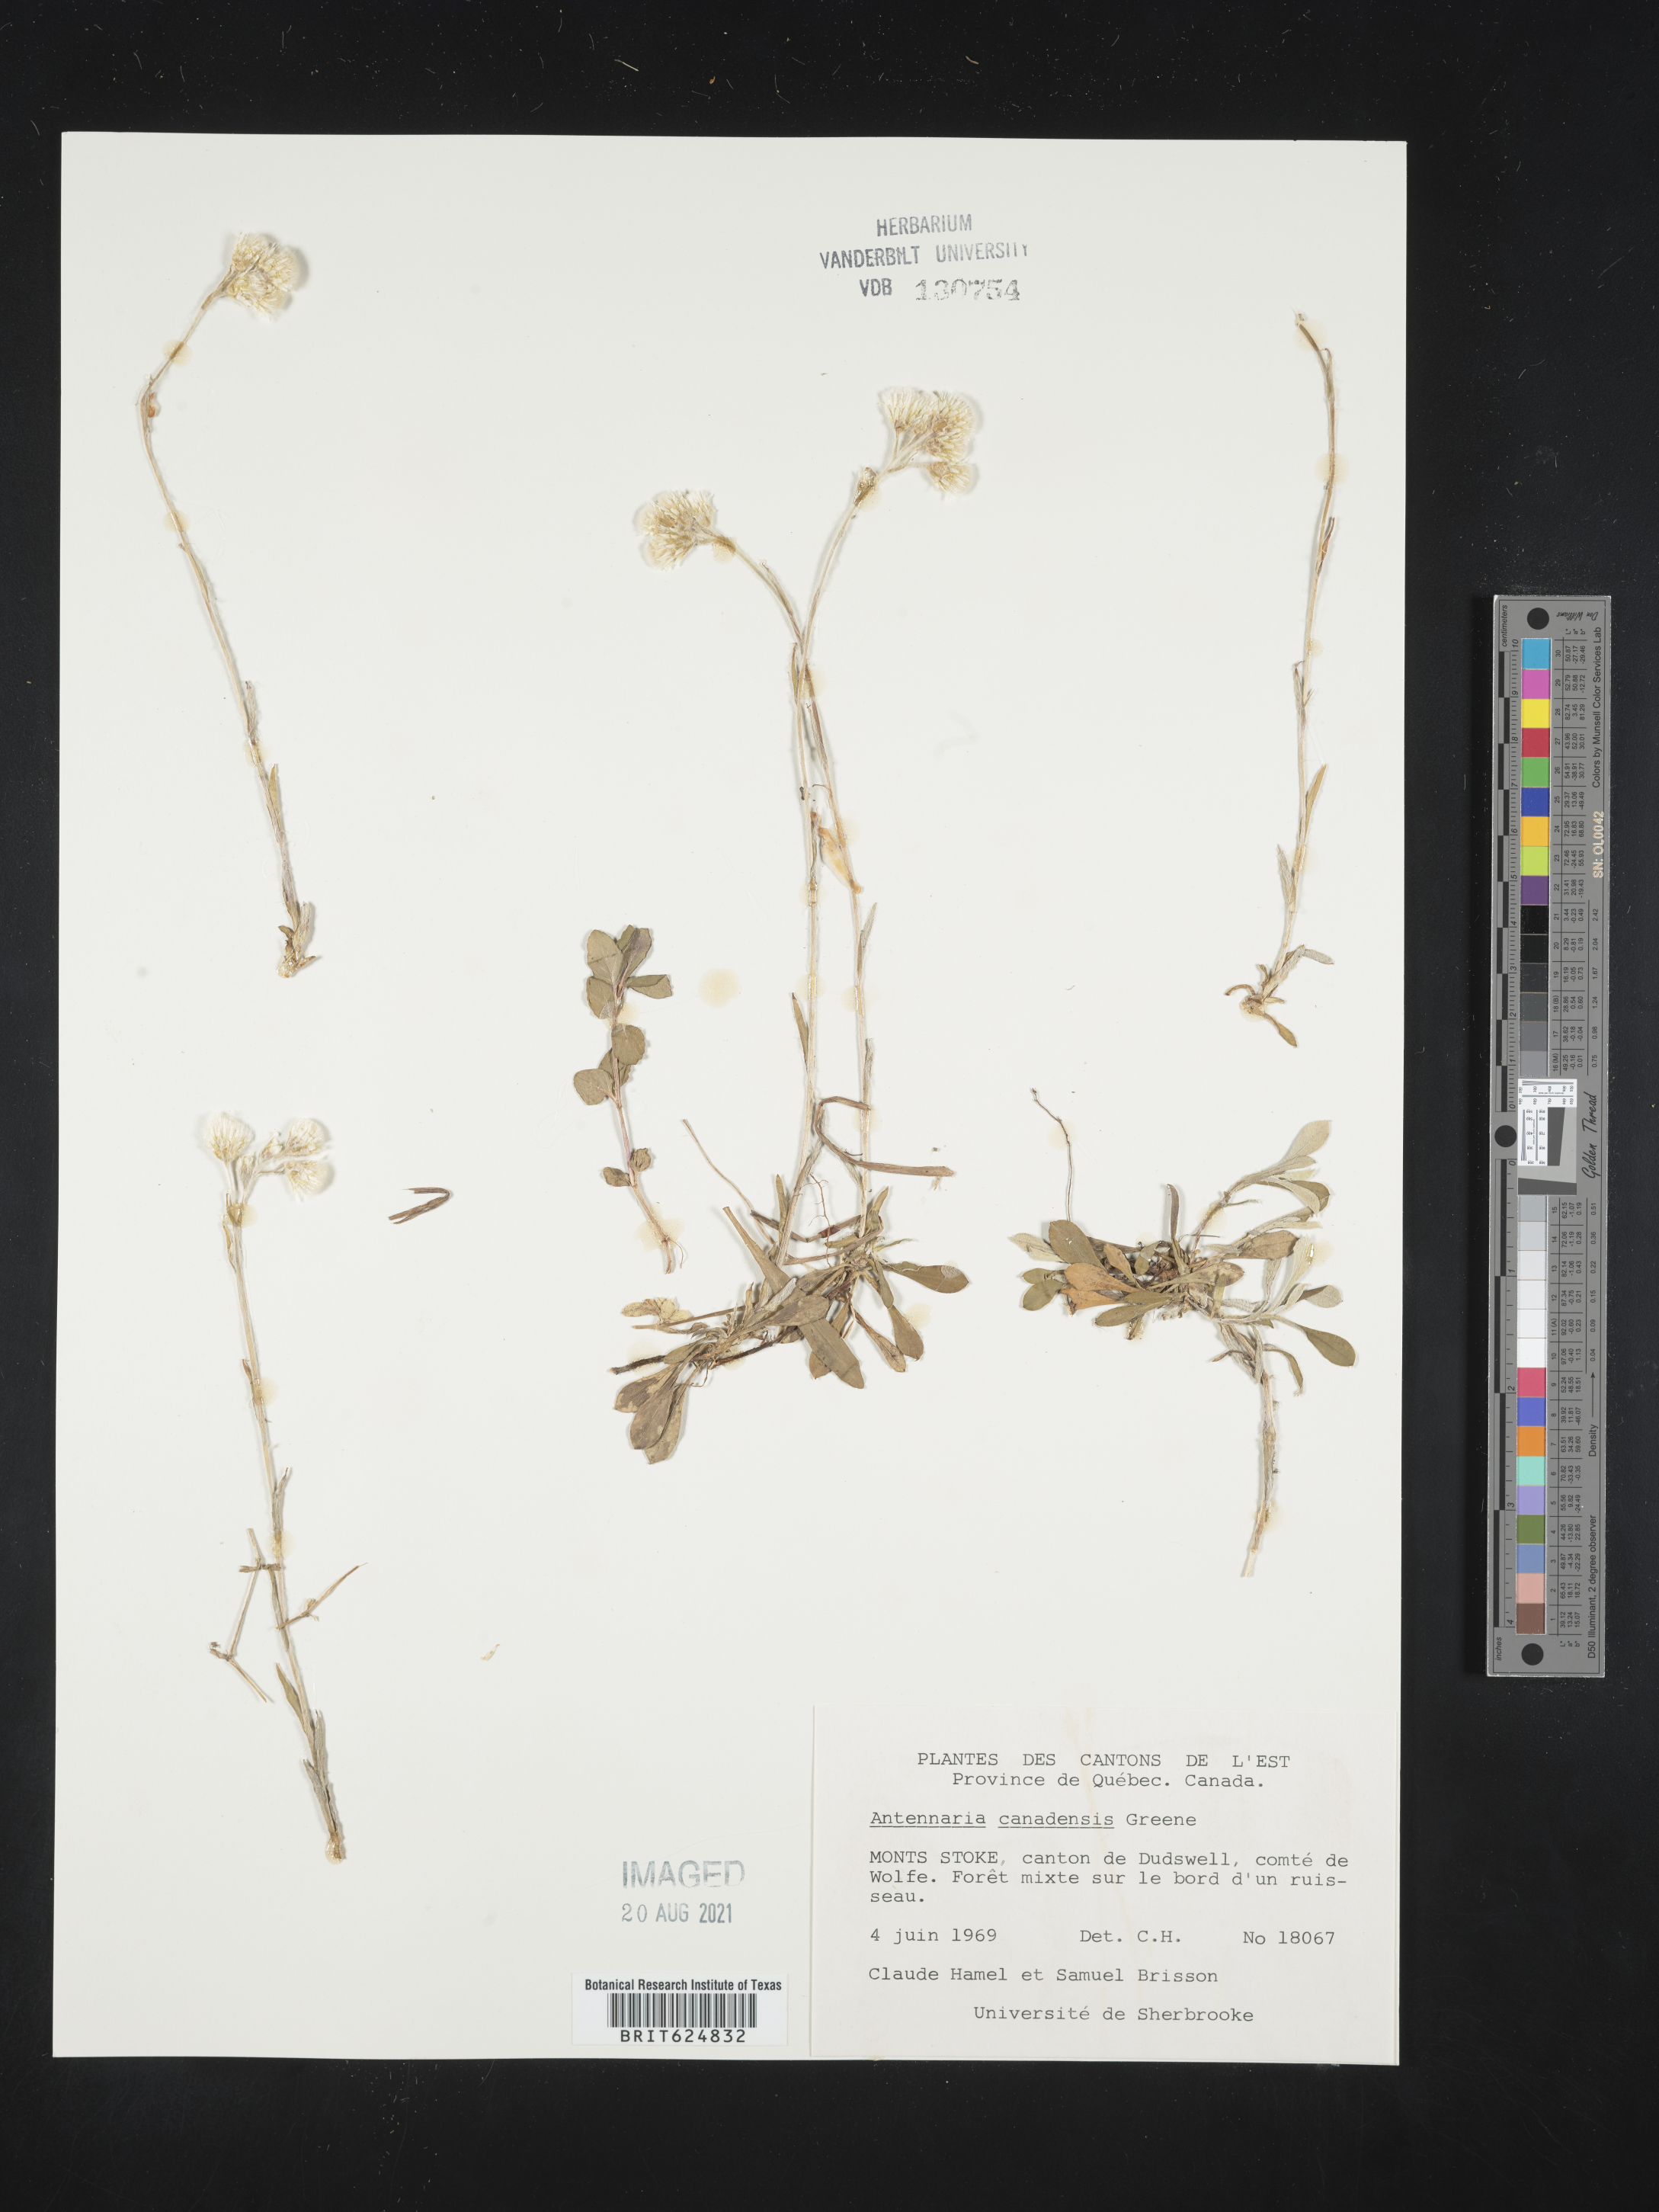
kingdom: Plantae
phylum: Tracheophyta
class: Magnoliopsida
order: Asterales
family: Asteraceae
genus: Antennaria
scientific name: Antennaria howellii
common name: Howell's pussytoes
